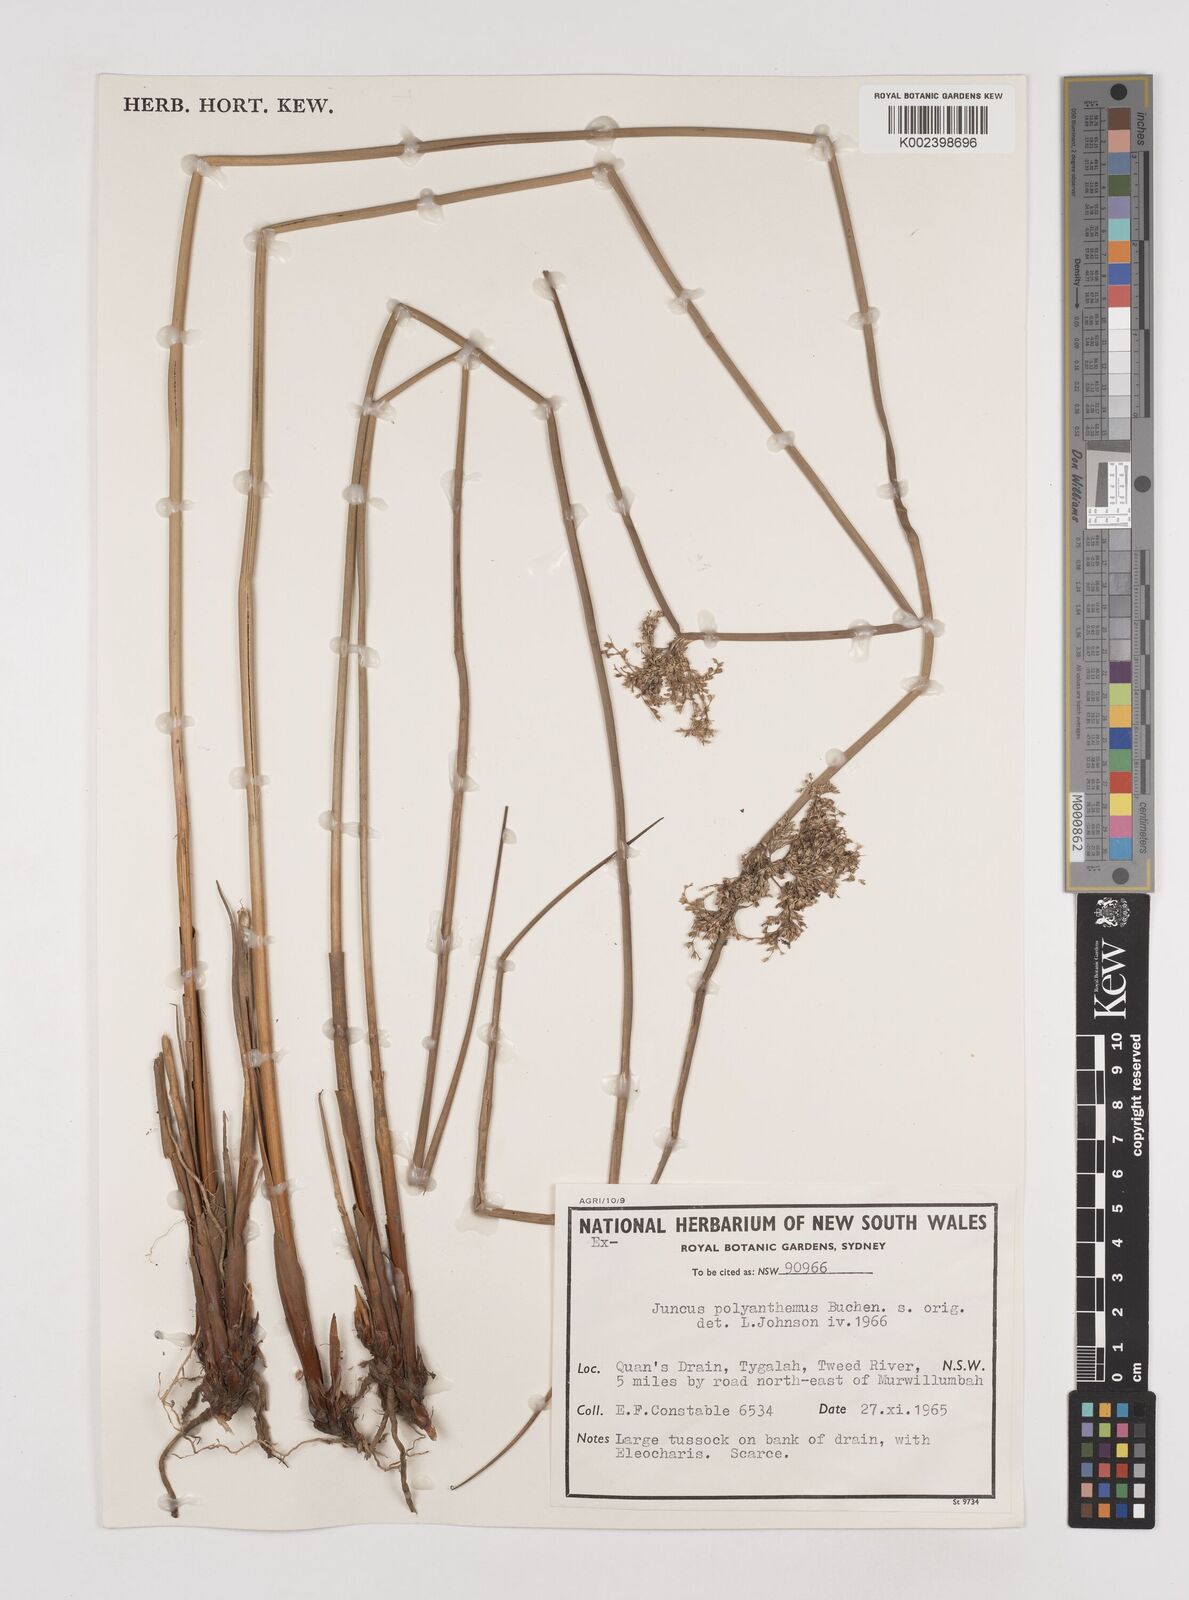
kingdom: Plantae
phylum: Tracheophyta
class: Liliopsida
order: Poales
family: Juncaceae
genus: Juncus
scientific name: Juncus polyanthemus
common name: Manyflower rush
